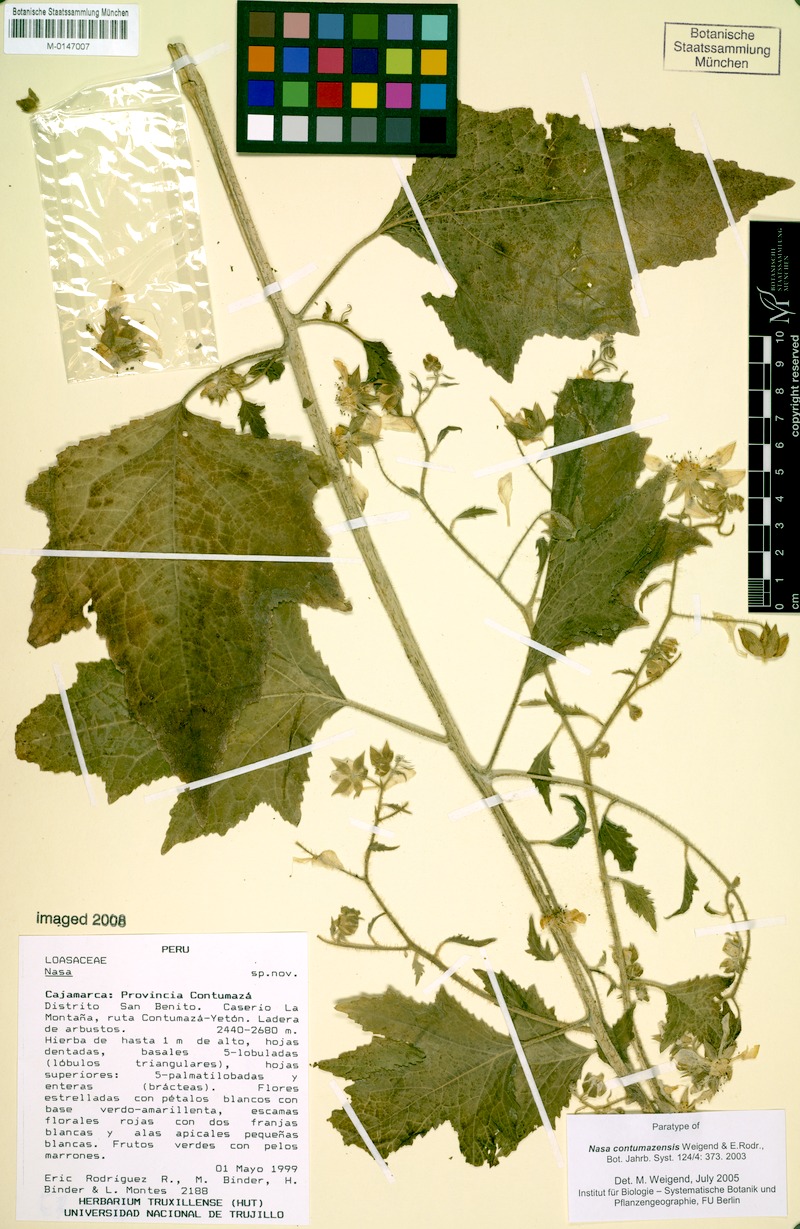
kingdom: Plantae
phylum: Tracheophyta
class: Magnoliopsida
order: Cornales
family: Loasaceae
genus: Nasa
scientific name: Nasa contumazensis
